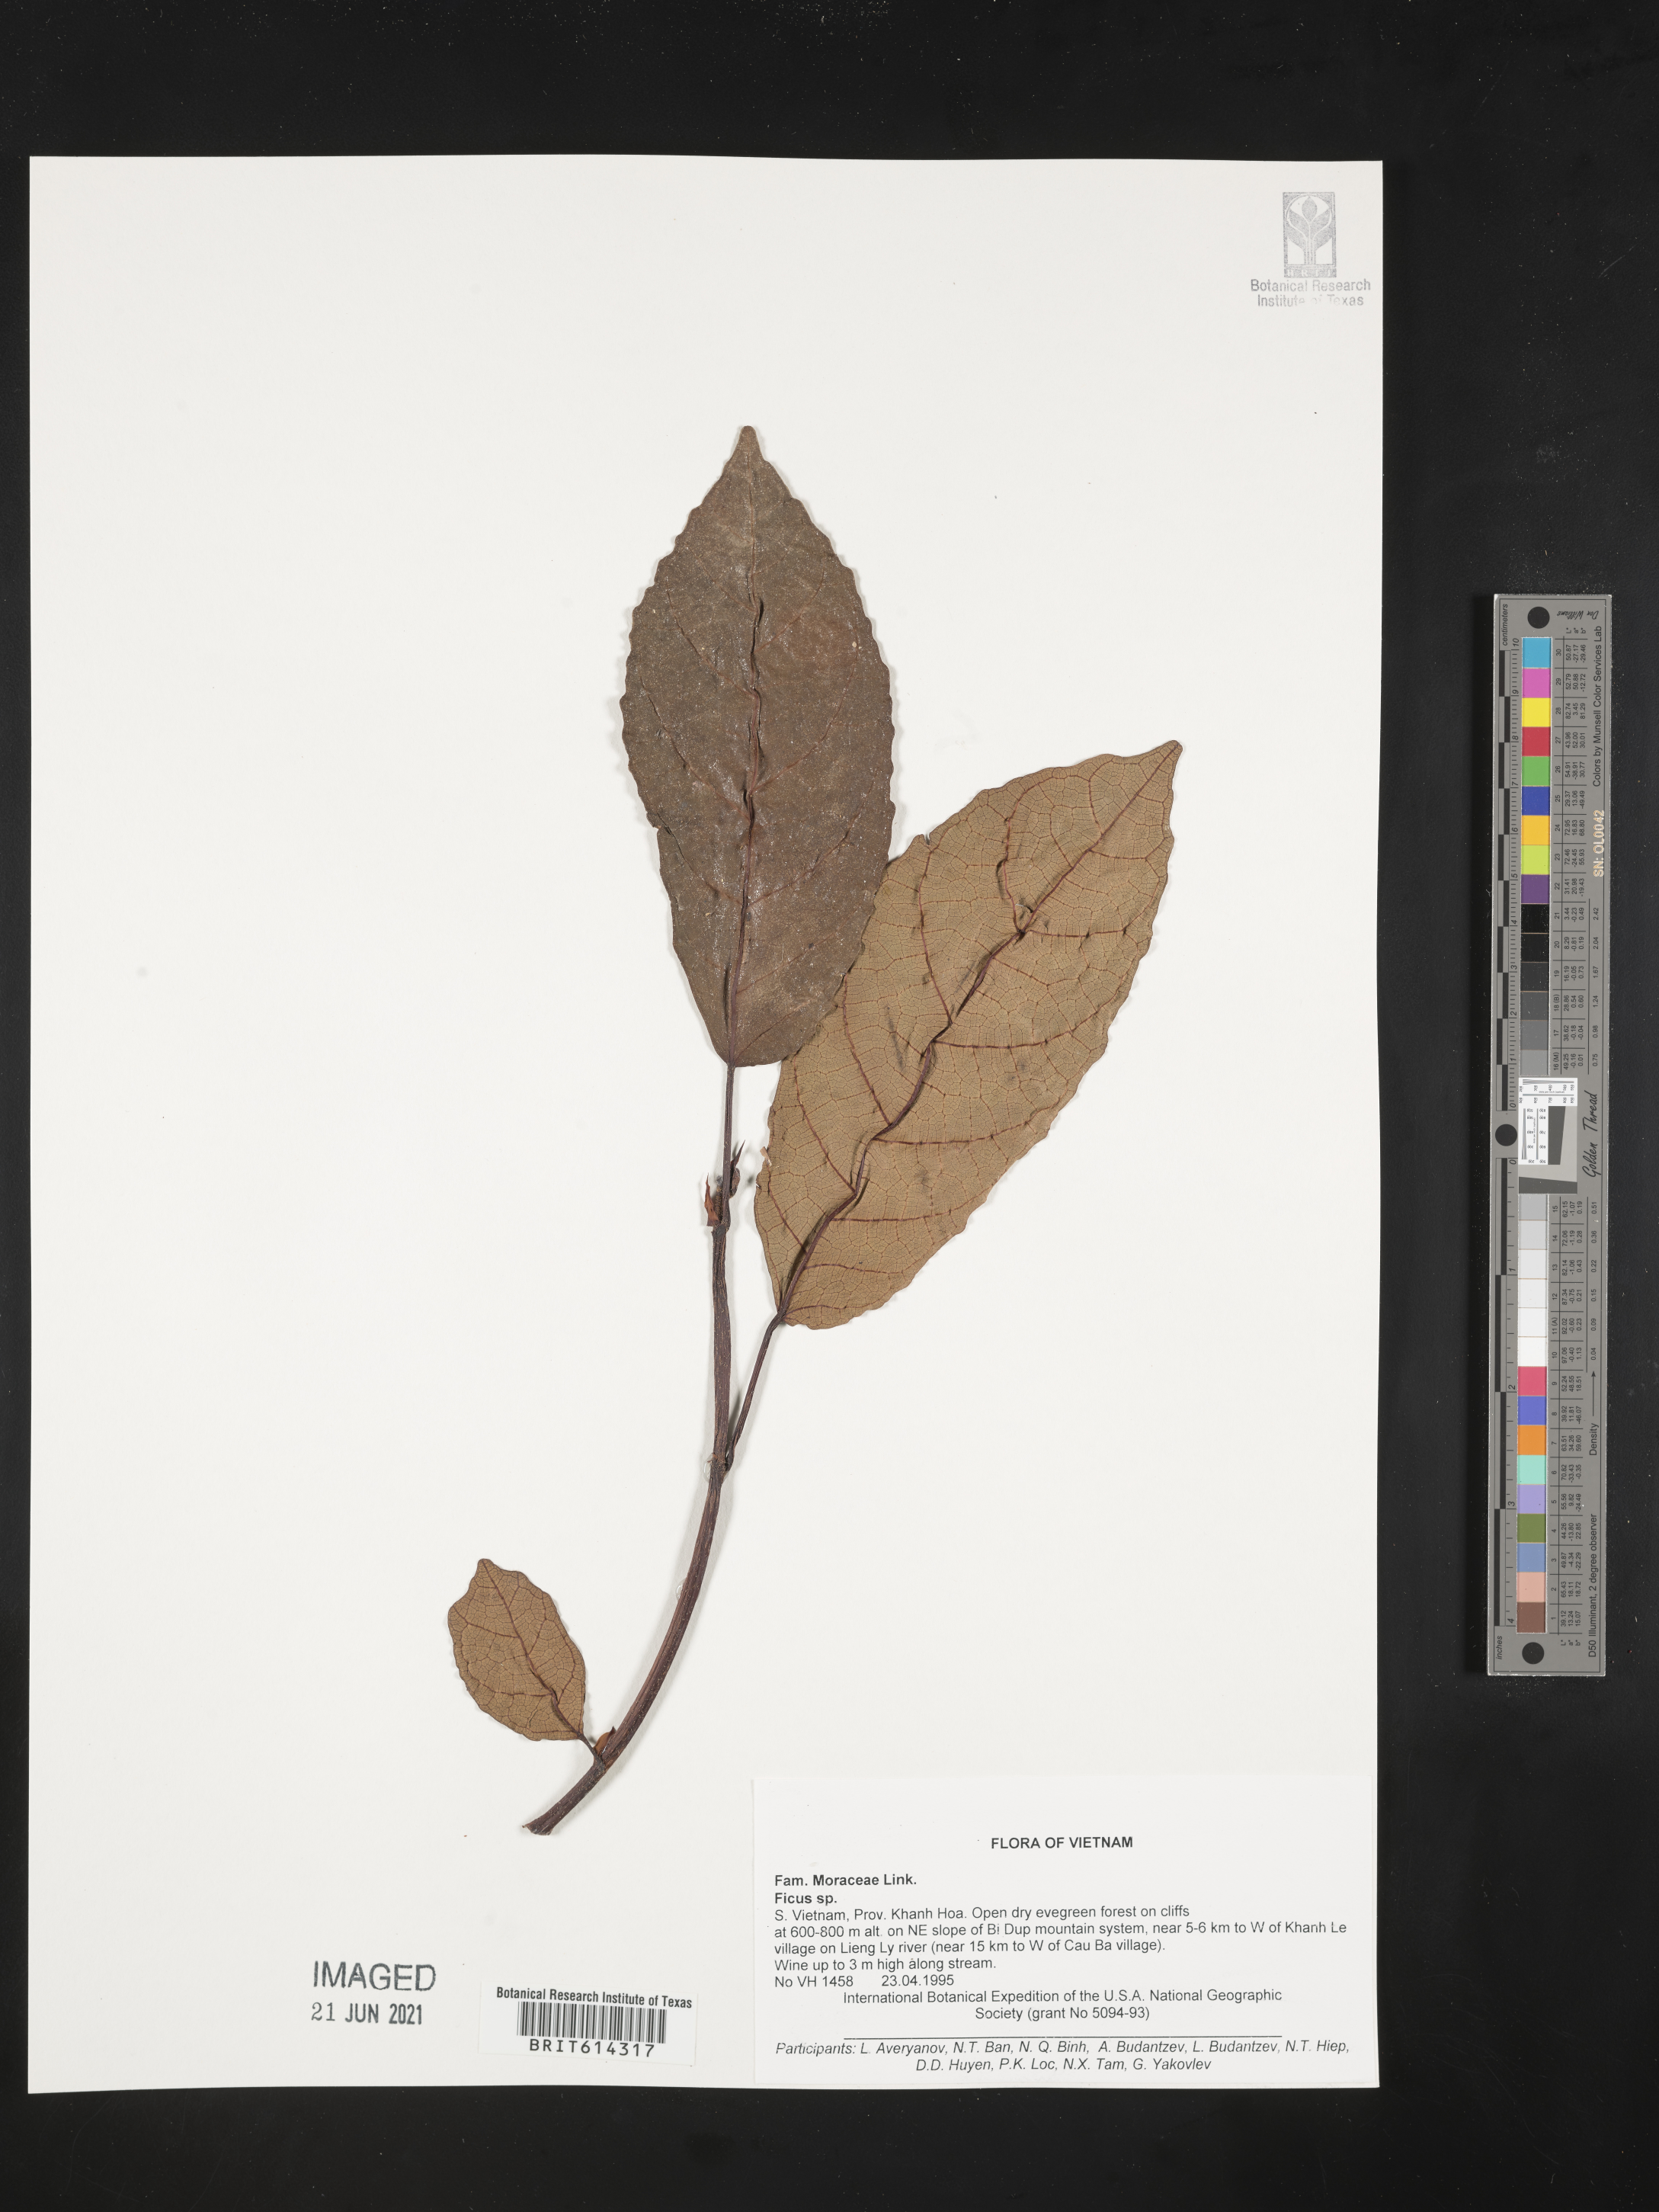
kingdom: Plantae
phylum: Tracheophyta
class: Magnoliopsida
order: Rosales
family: Moraceae
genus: Ficus
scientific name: Ficus
